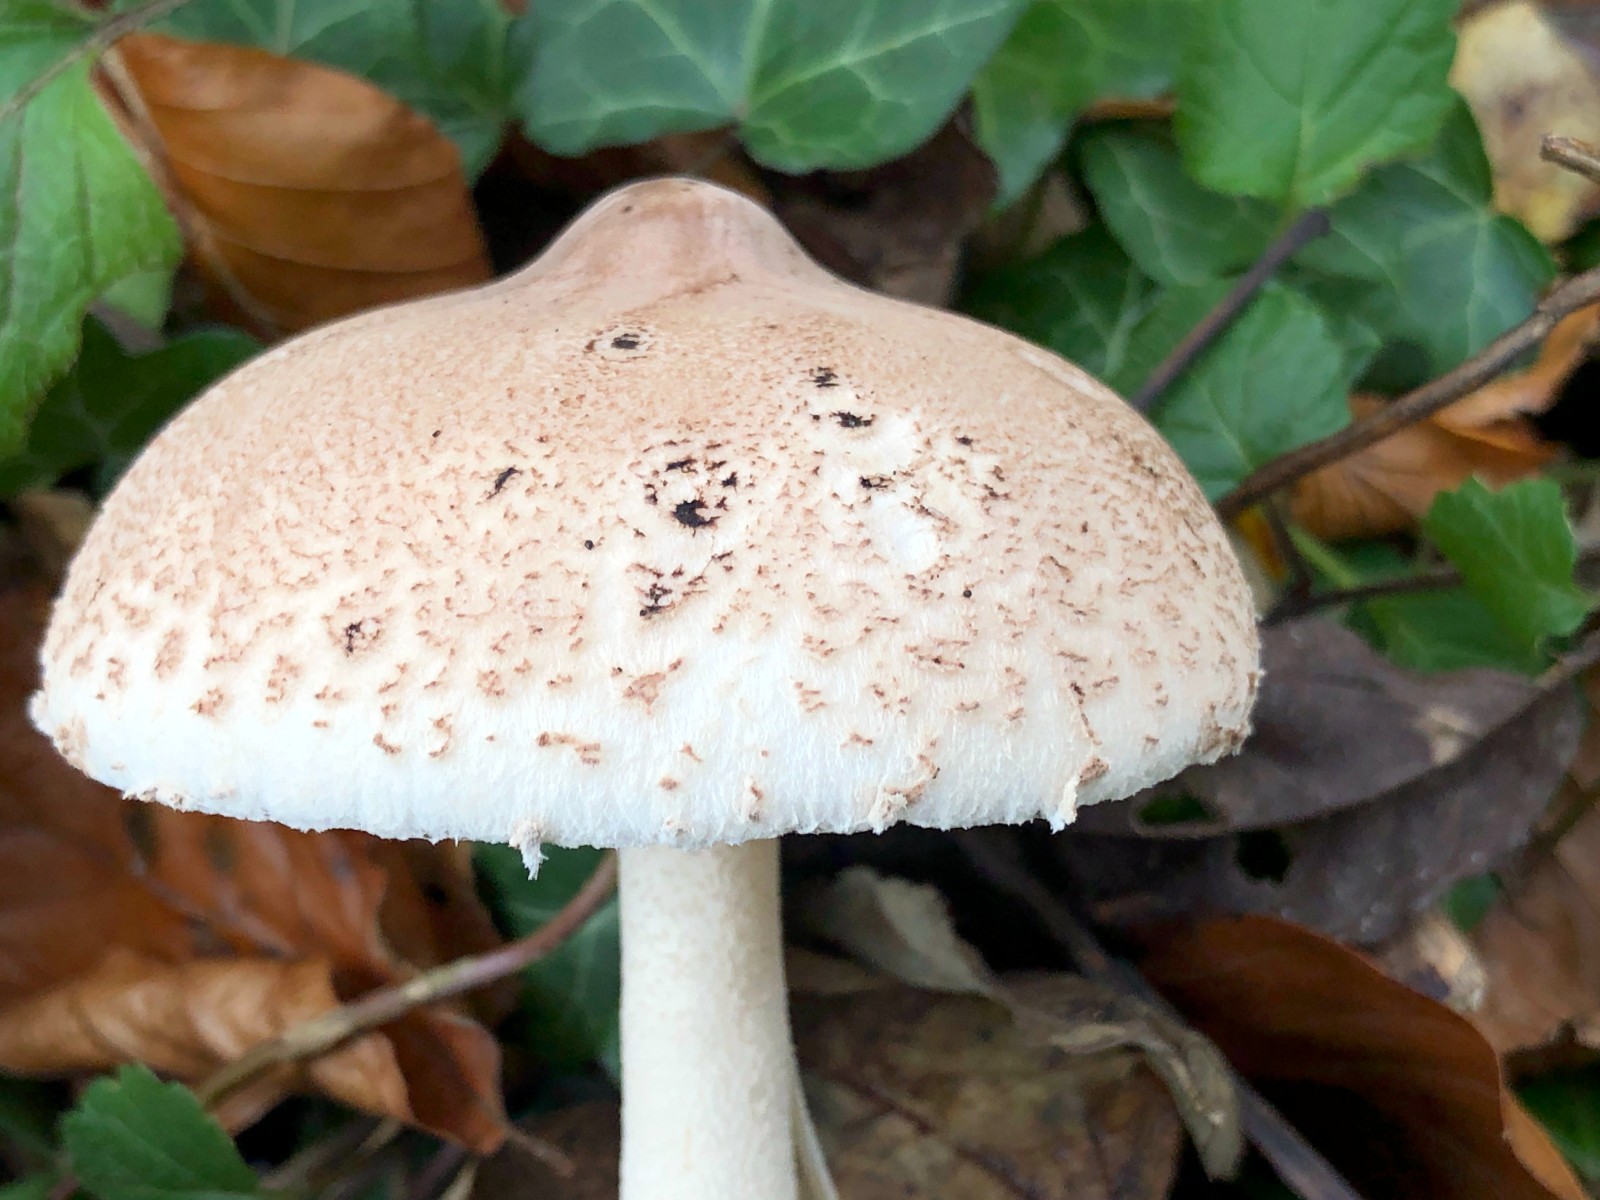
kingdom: Fungi
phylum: Basidiomycota
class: Agaricomycetes
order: Agaricales
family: Agaricaceae
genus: Macrolepiota
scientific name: Macrolepiota
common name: kæmpeparasolhat
